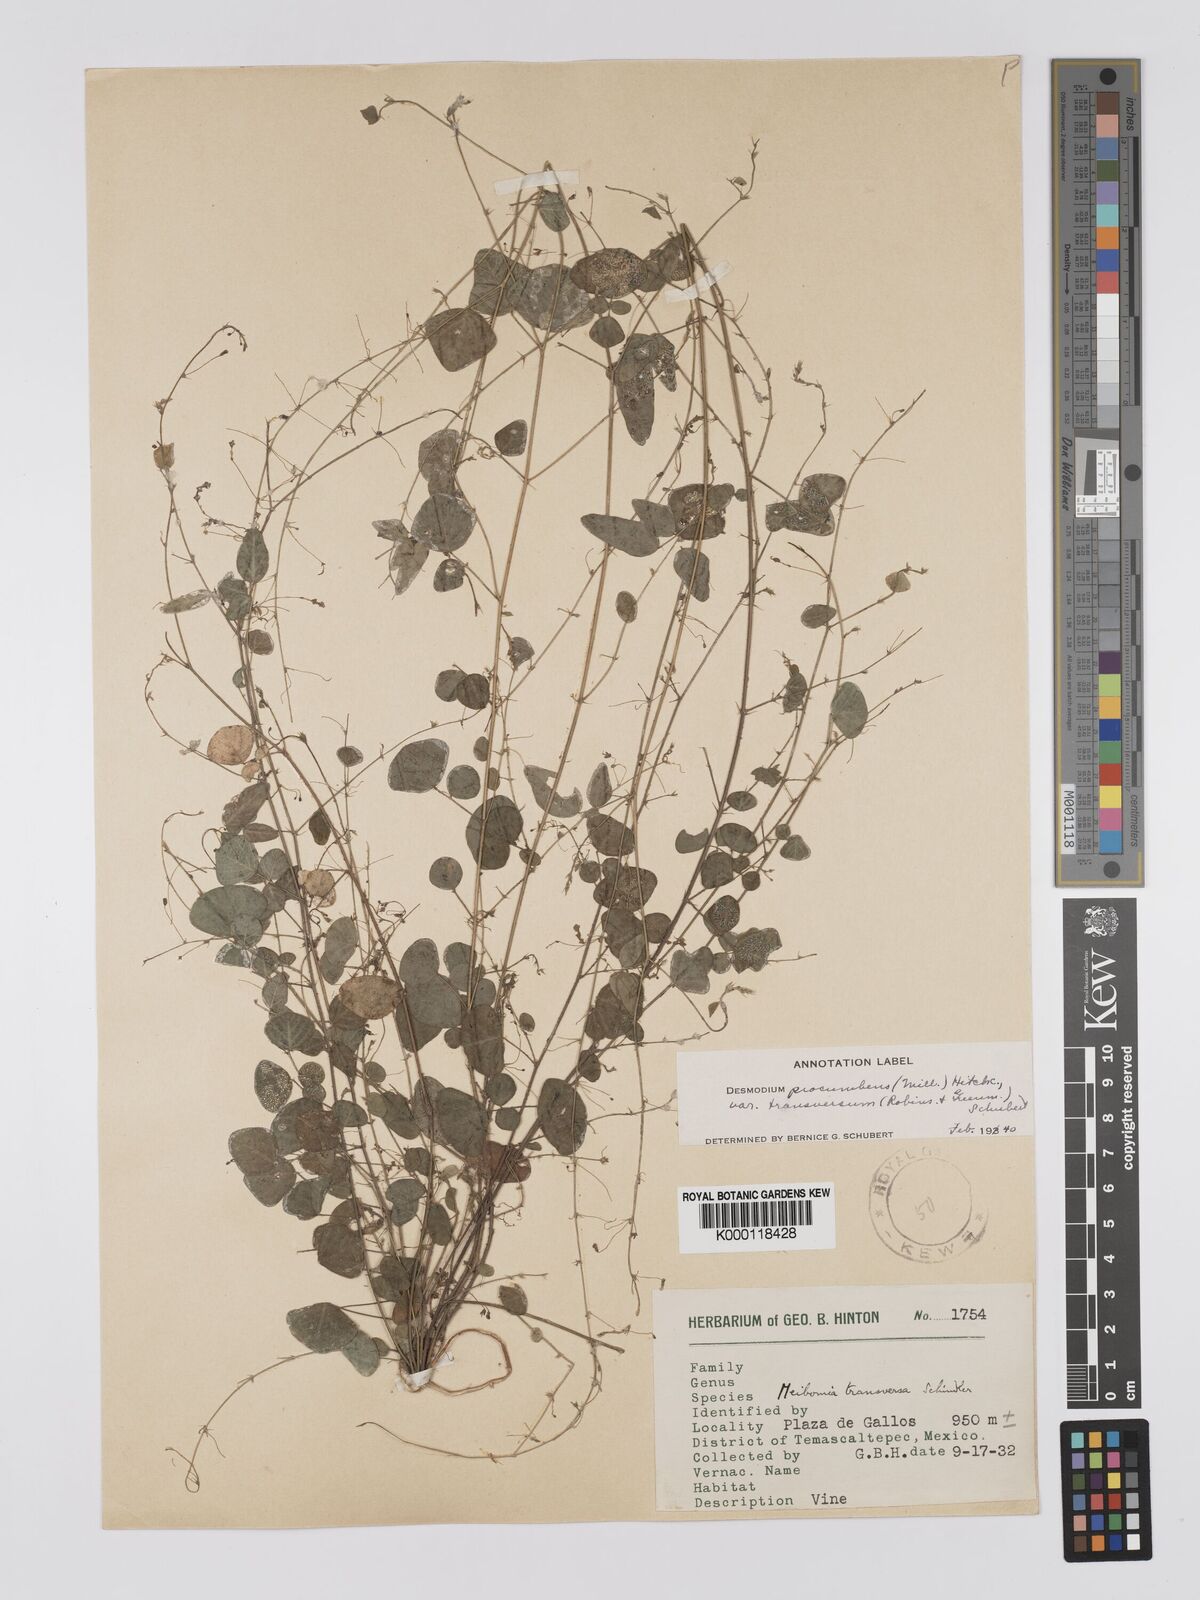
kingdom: Plantae
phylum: Tracheophyta
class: Magnoliopsida
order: Fabales
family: Fabaceae
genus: Desmodium
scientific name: Desmodium procumbens
